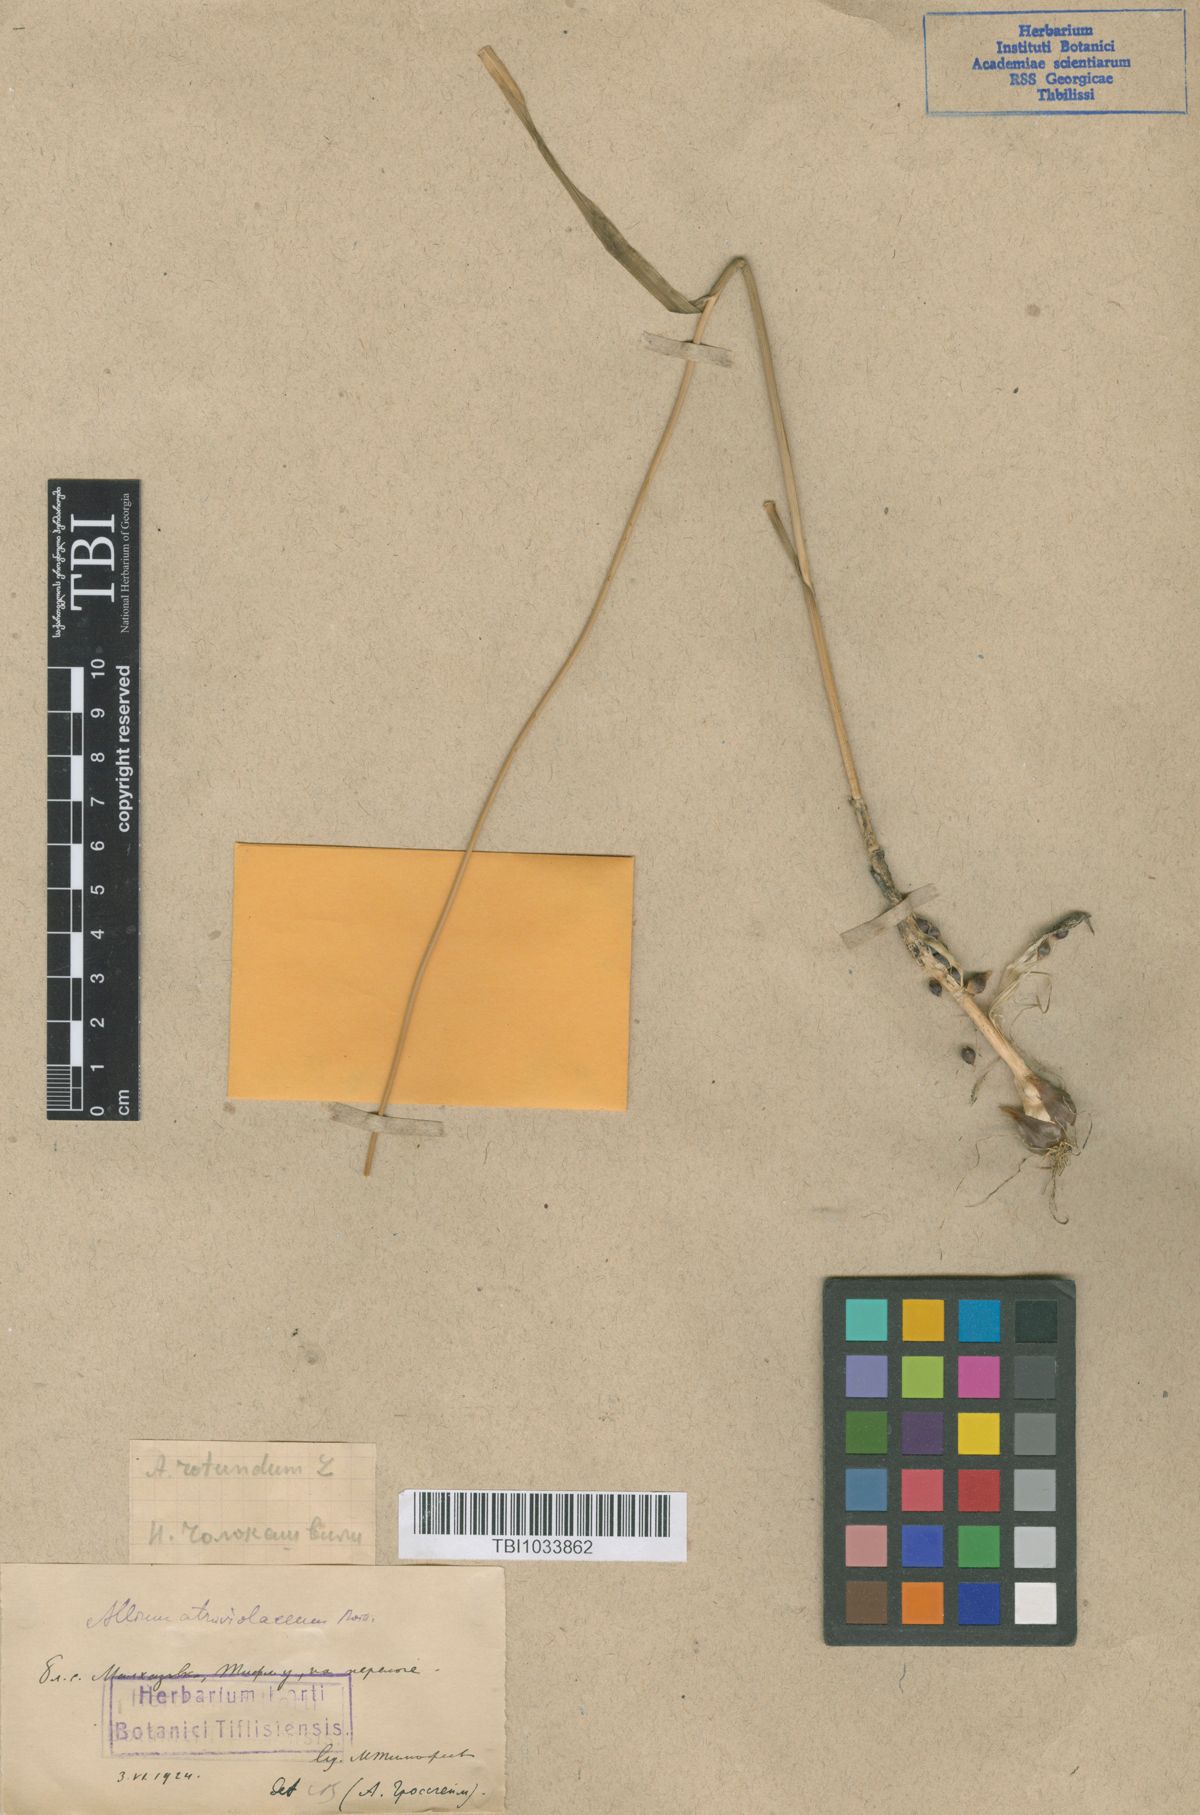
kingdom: Plantae
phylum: Tracheophyta
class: Liliopsida
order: Asparagales
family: Amaryllidaceae
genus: Allium
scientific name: Allium rotundum
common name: Sand leek
